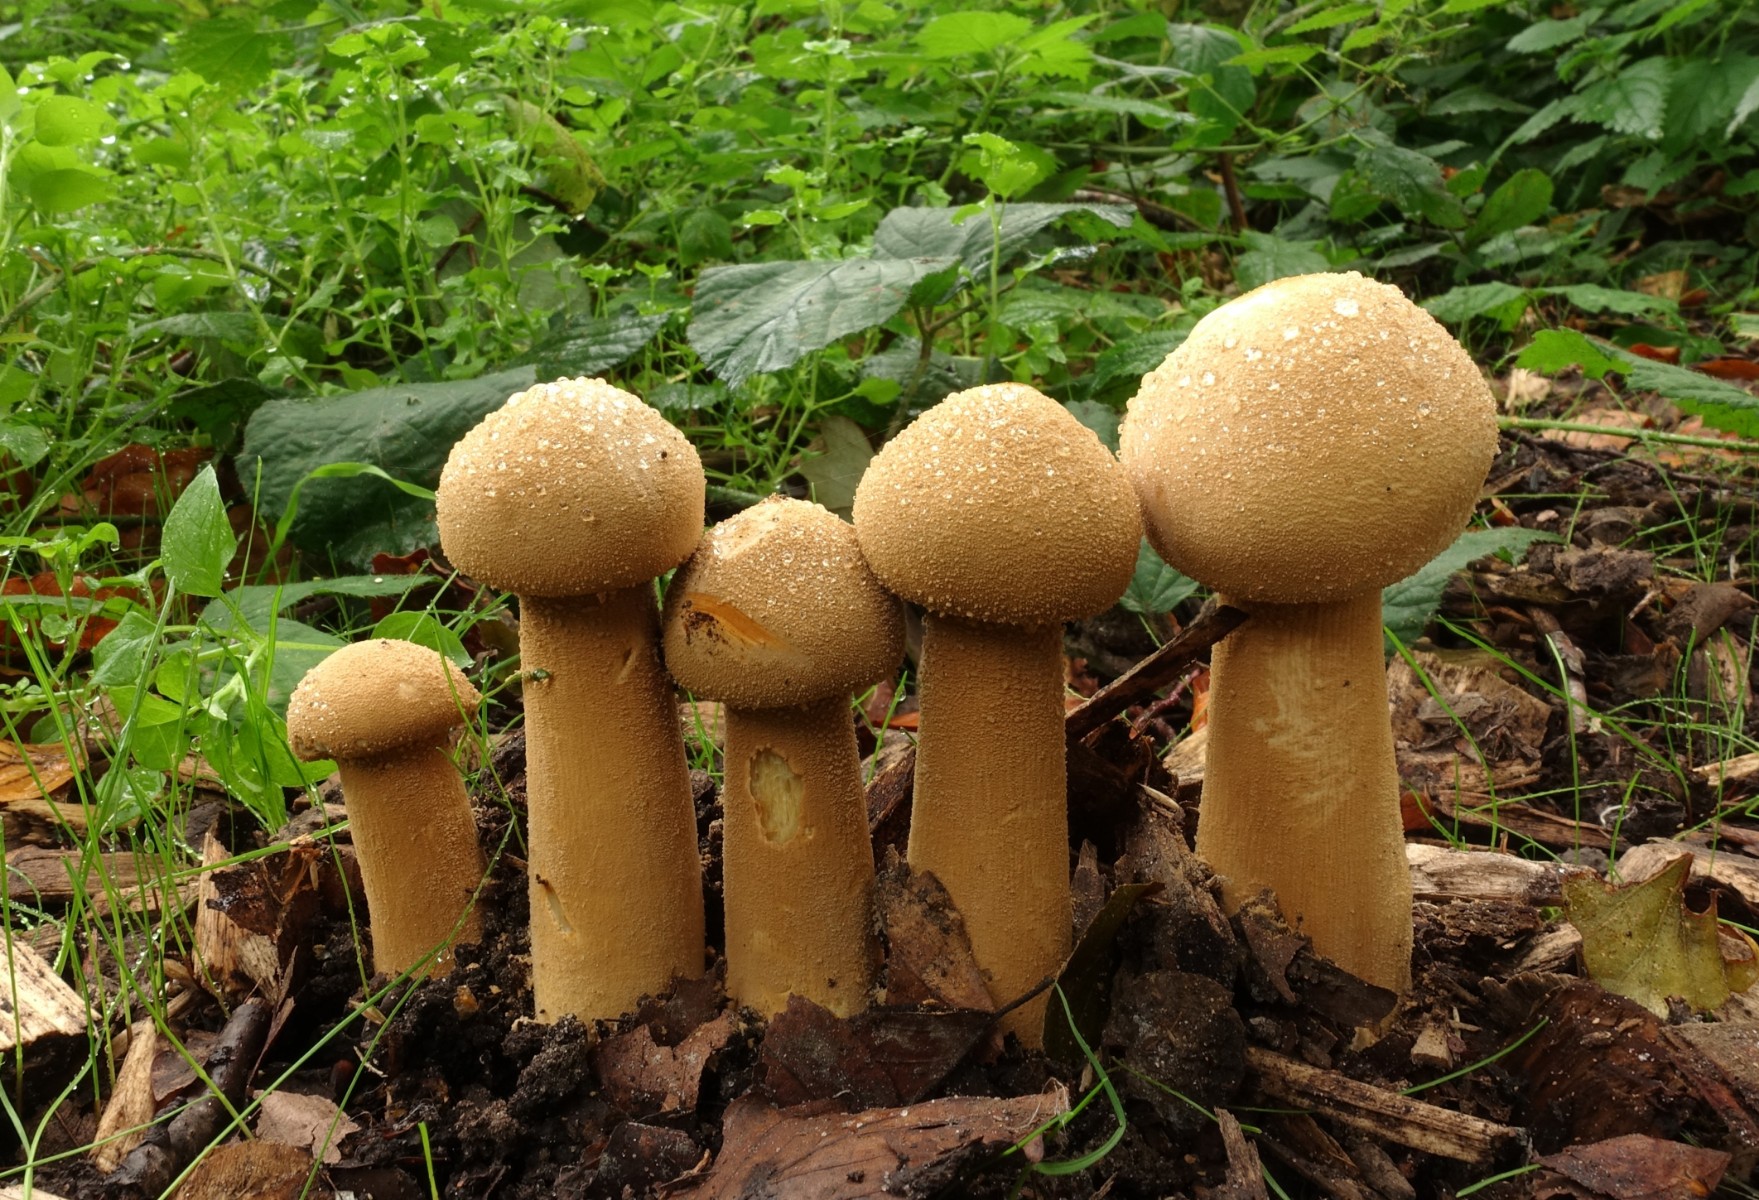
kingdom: Fungi
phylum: Basidiomycota
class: Agaricomycetes
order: Agaricales
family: Tricholomataceae
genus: Phaeolepiota
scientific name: Phaeolepiota aurea
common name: gyldenhat
